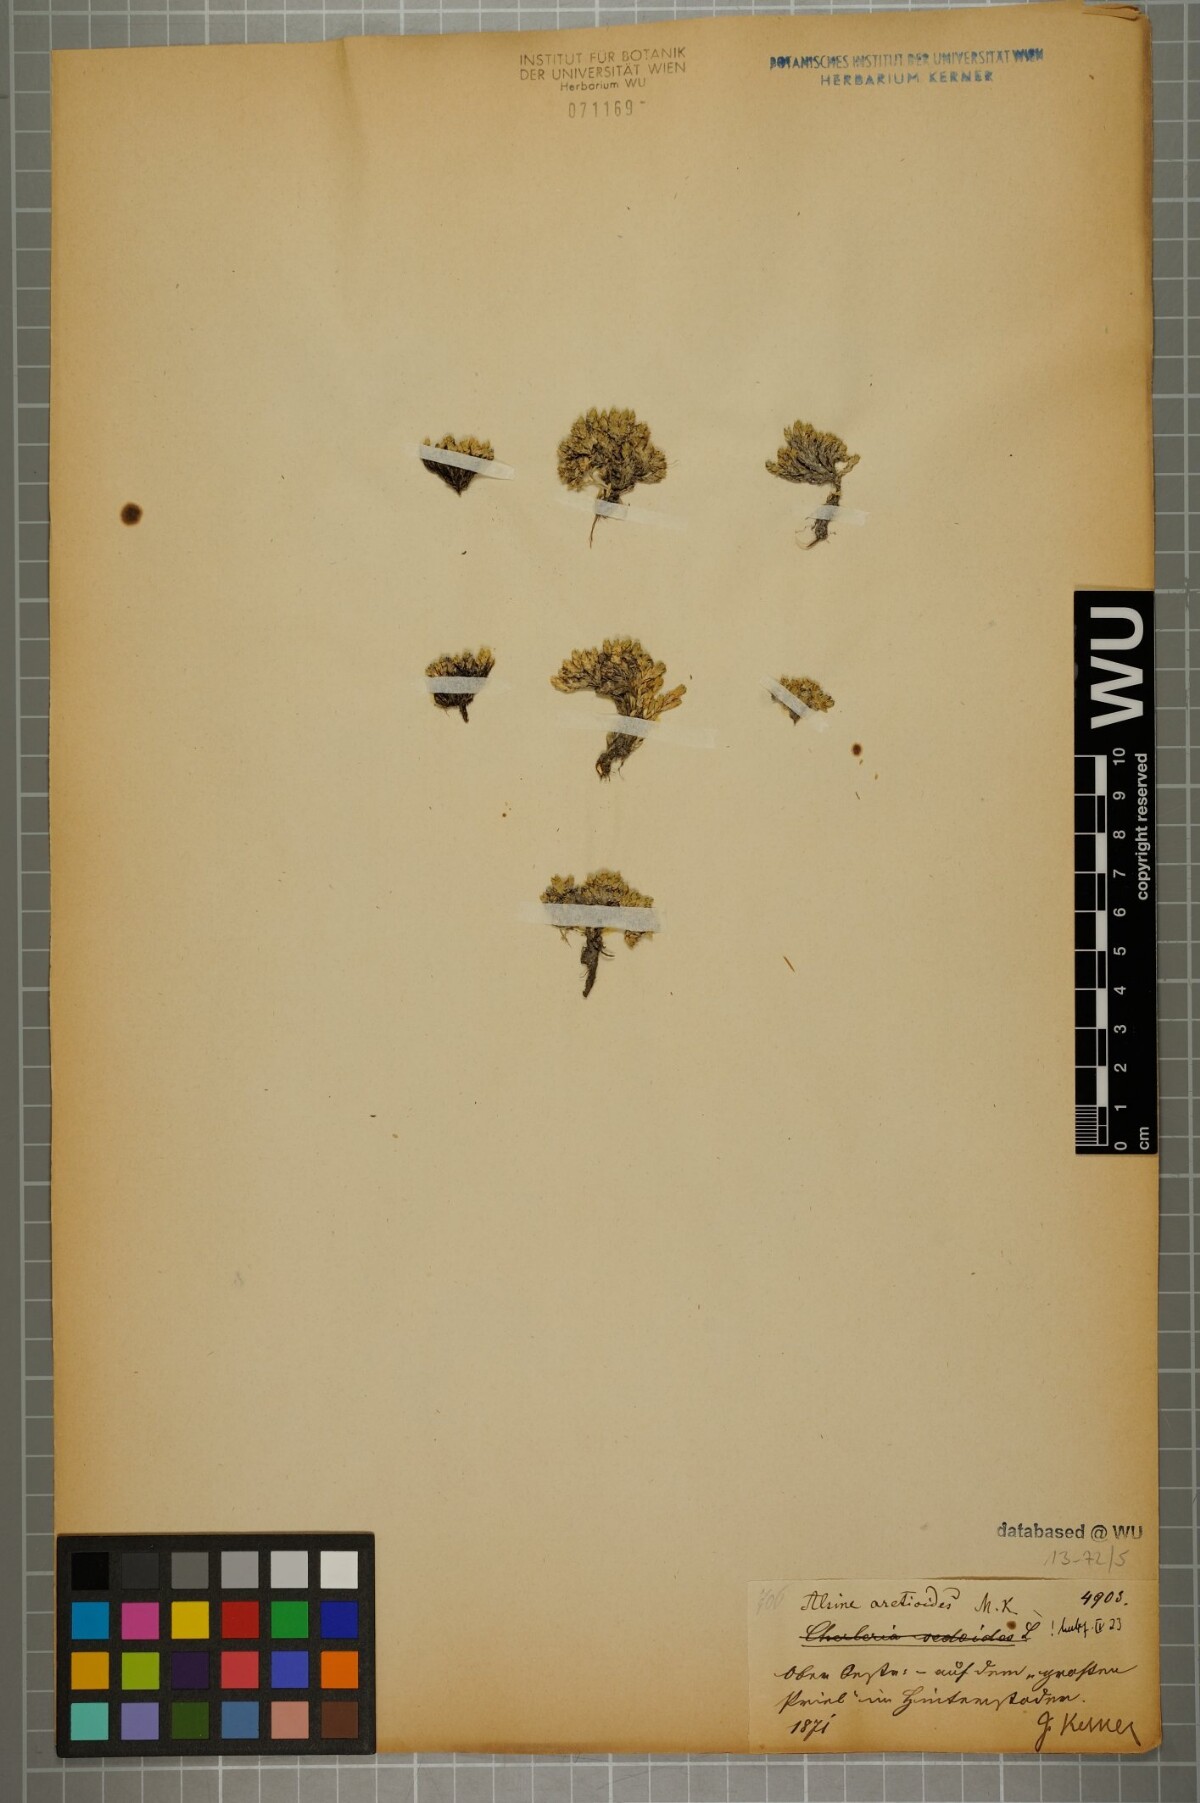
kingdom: Plantae
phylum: Tracheophyta
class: Magnoliopsida
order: Caryophyllales
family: Caryophyllaceae
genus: Facchinia
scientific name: Facchinia cherlerioides
